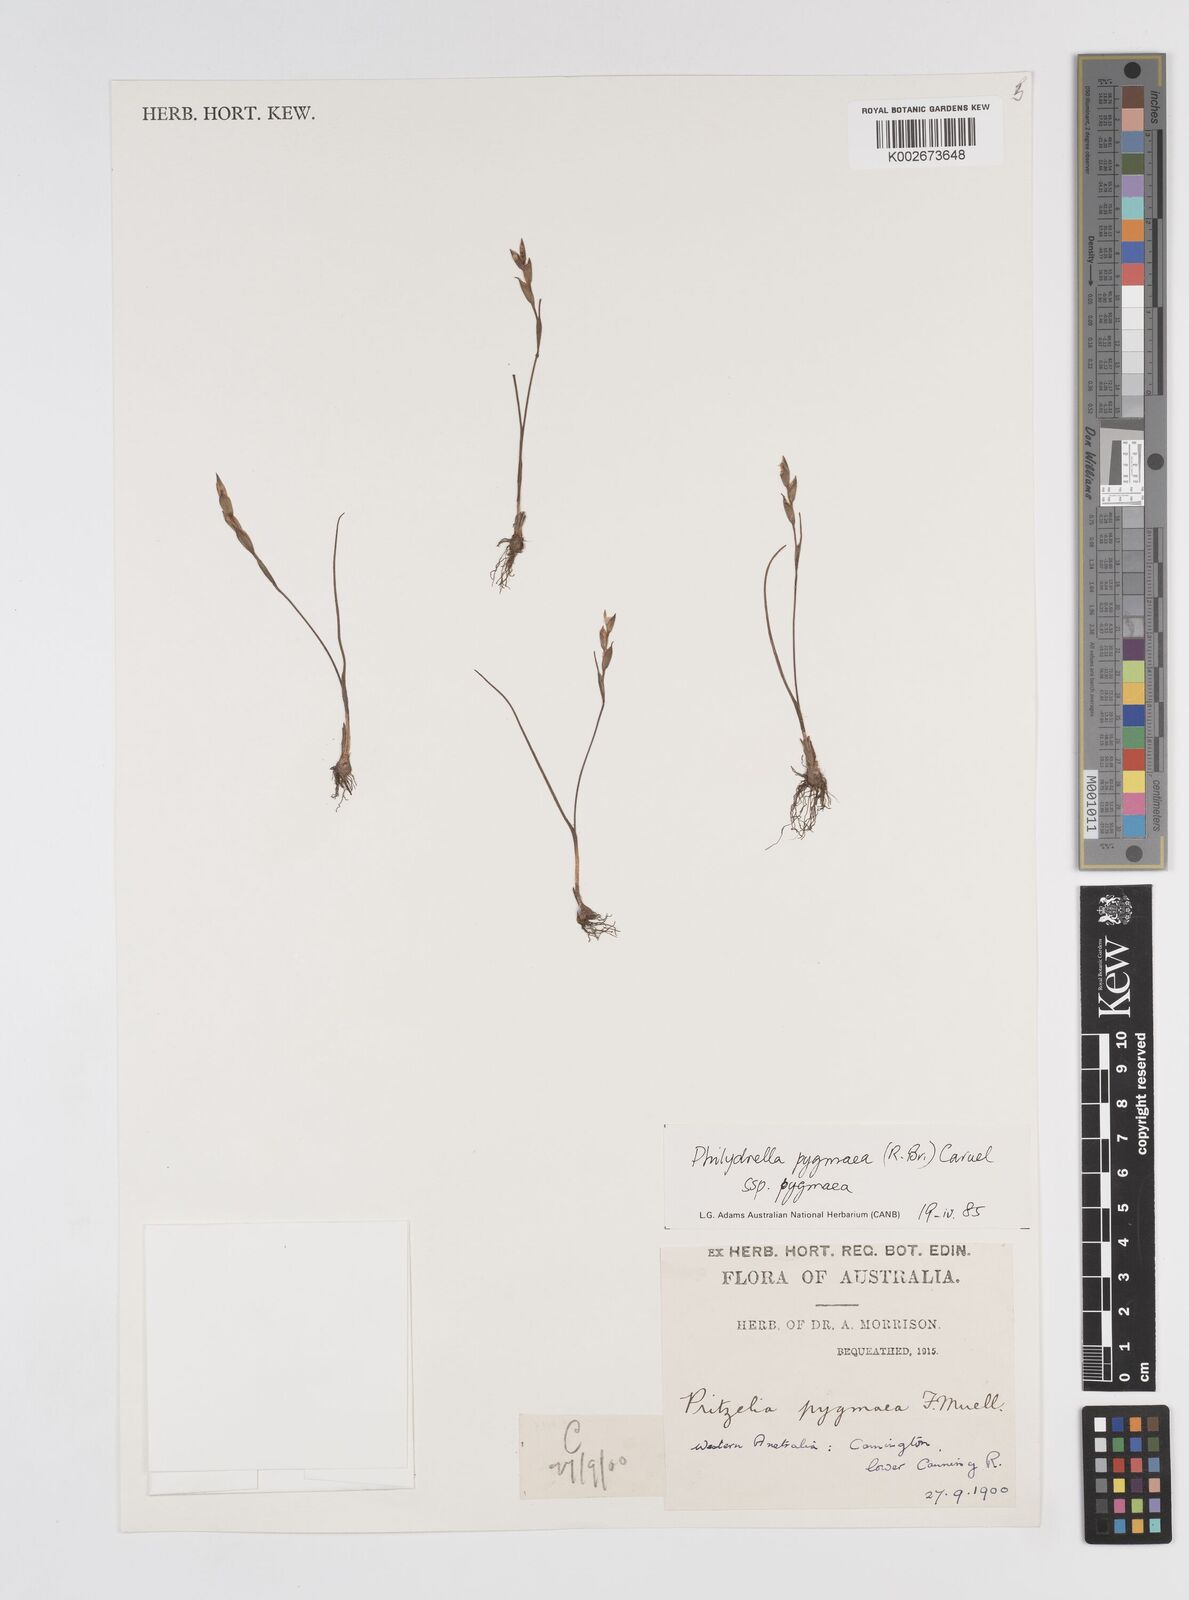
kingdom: Plantae
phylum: Tracheophyta
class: Liliopsida
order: Commelinales
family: Philydraceae
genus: Philydrella
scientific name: Philydrella pygmaea
